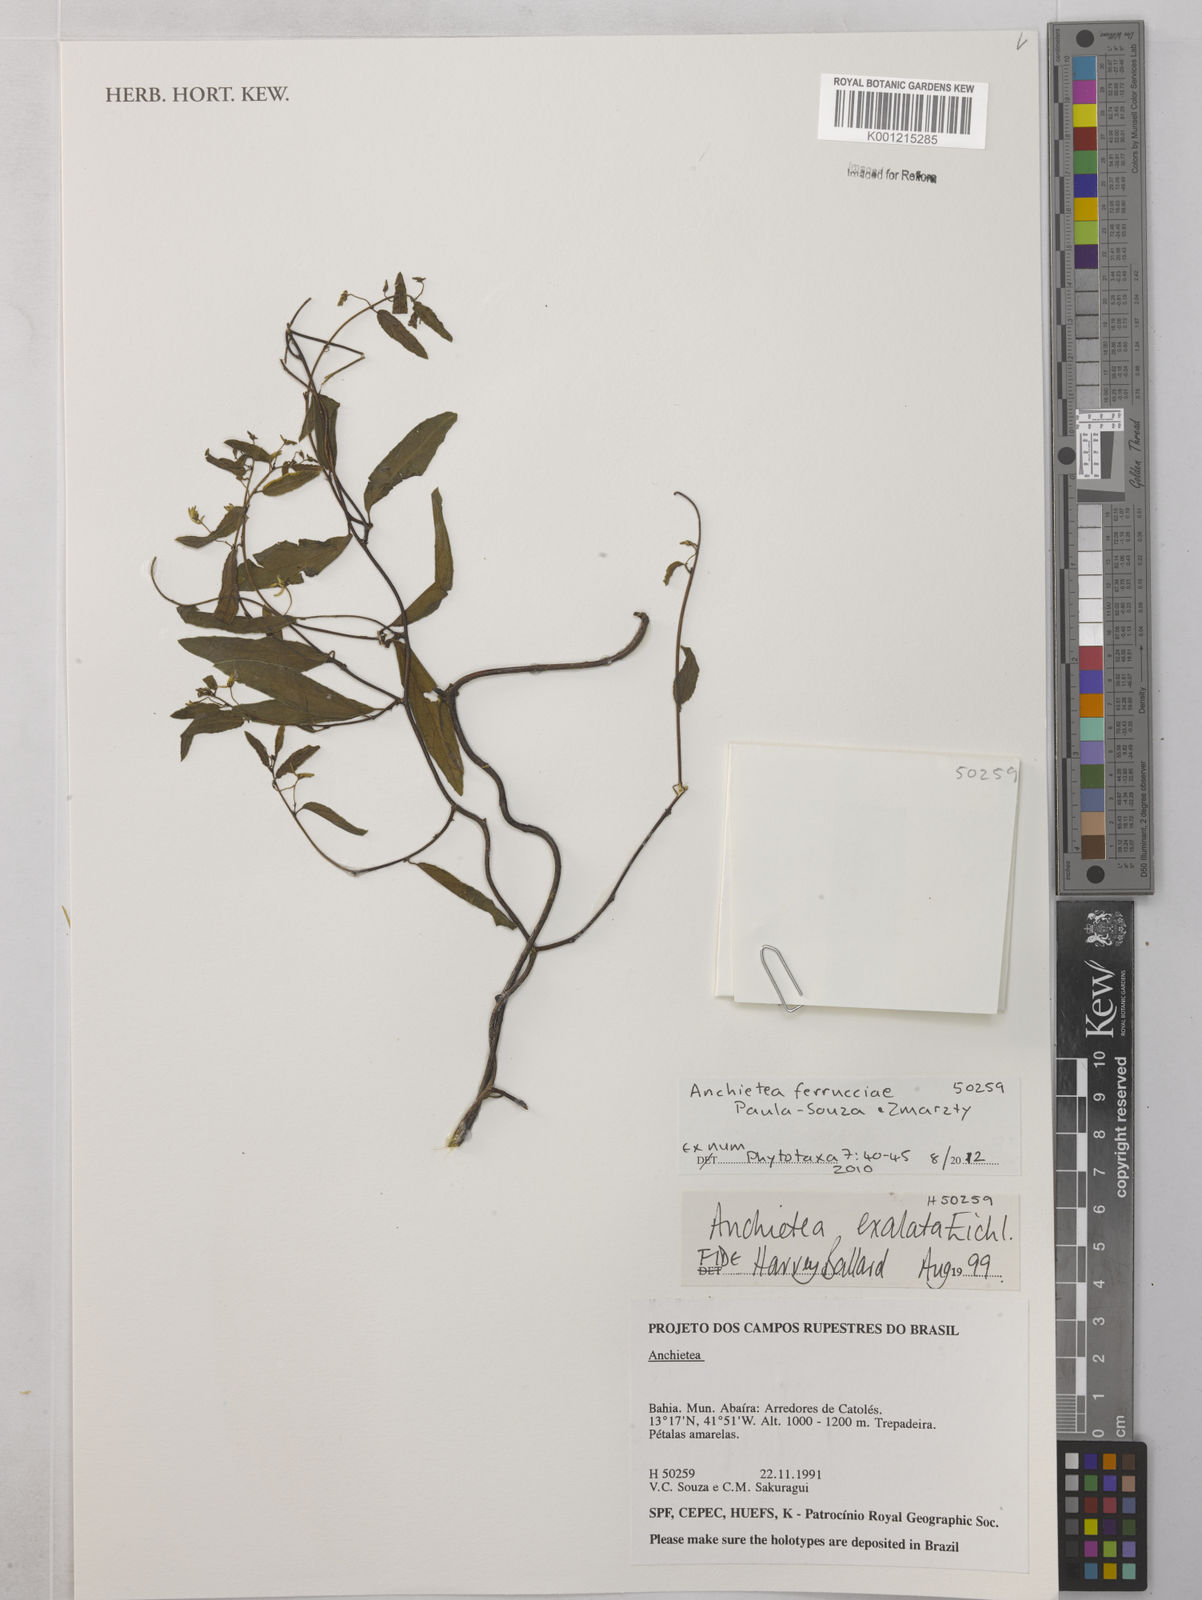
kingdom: Plantae
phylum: Tracheophyta
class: Magnoliopsida
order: Malpighiales
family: Violaceae
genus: Anchietea
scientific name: Anchietea ferrucciae
